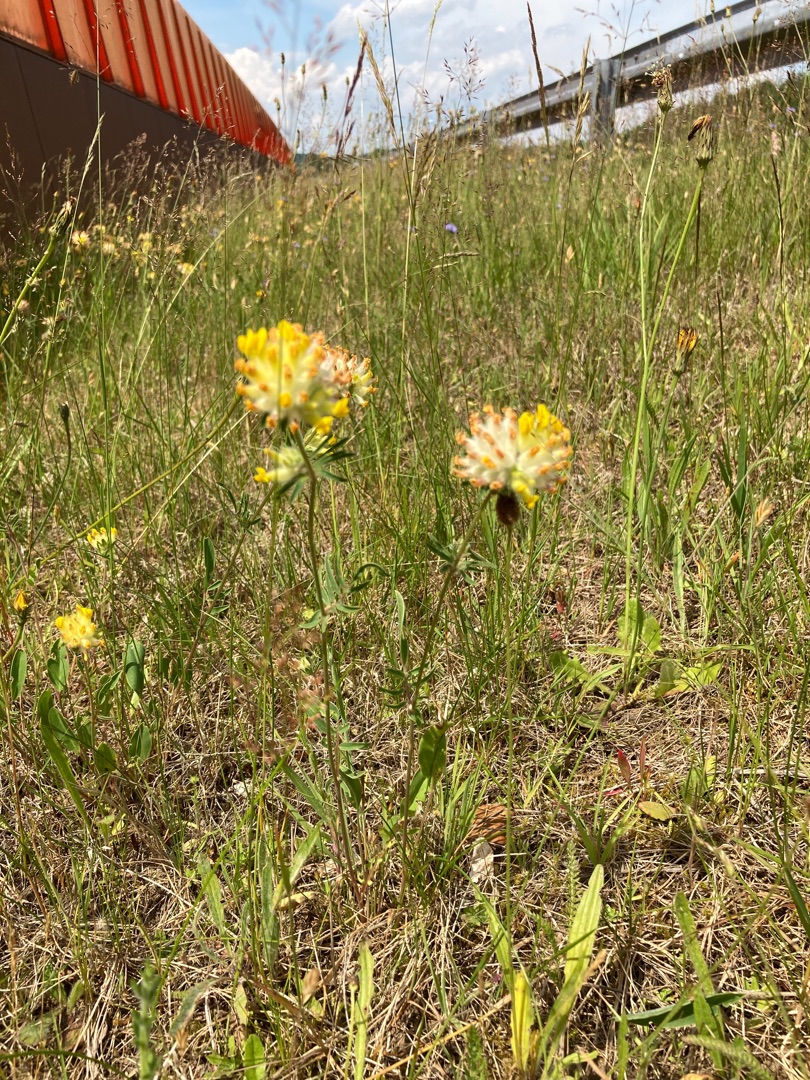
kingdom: Plantae
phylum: Tracheophyta
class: Magnoliopsida
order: Fabales
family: Fabaceae
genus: Anthyllis
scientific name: Anthyllis vulneraria
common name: Rundbælg
